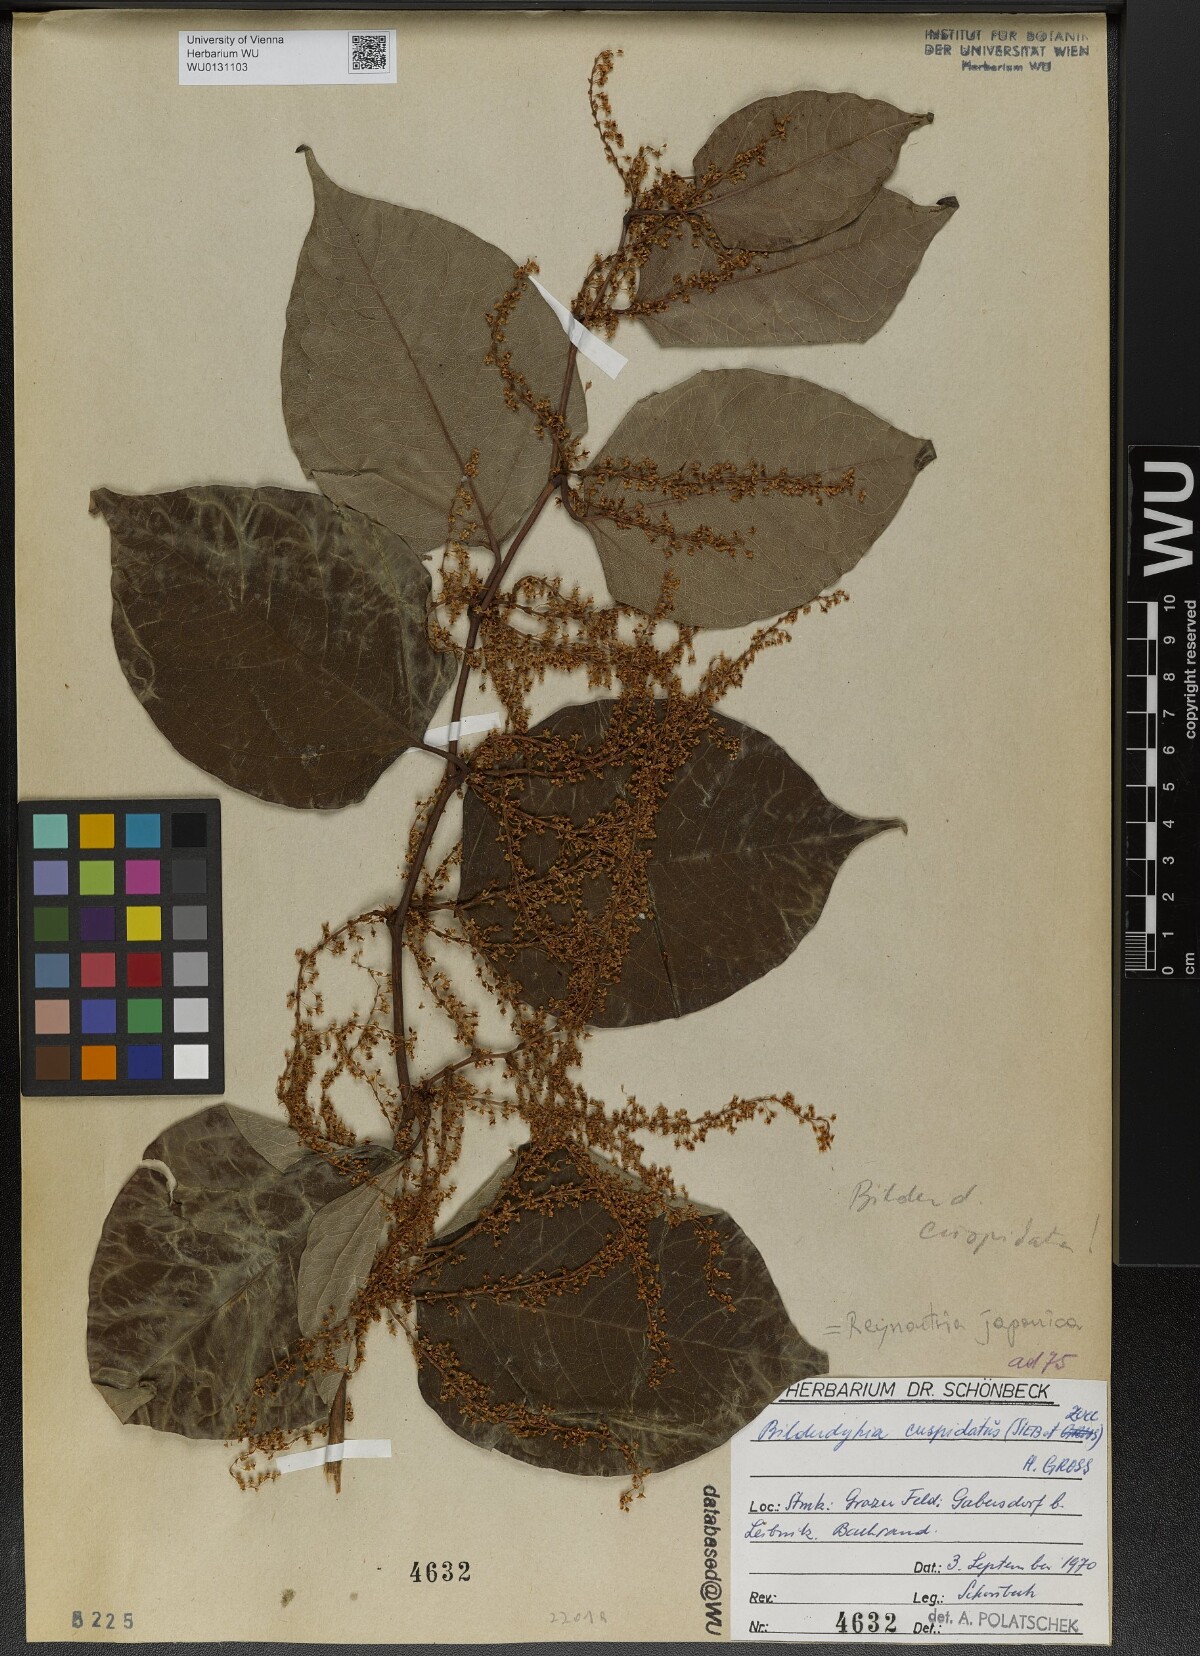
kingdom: Plantae
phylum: Tracheophyta
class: Magnoliopsida
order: Caryophyllales
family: Polygonaceae
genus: Reynoutria
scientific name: Reynoutria japonica
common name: Japanese knotweed
